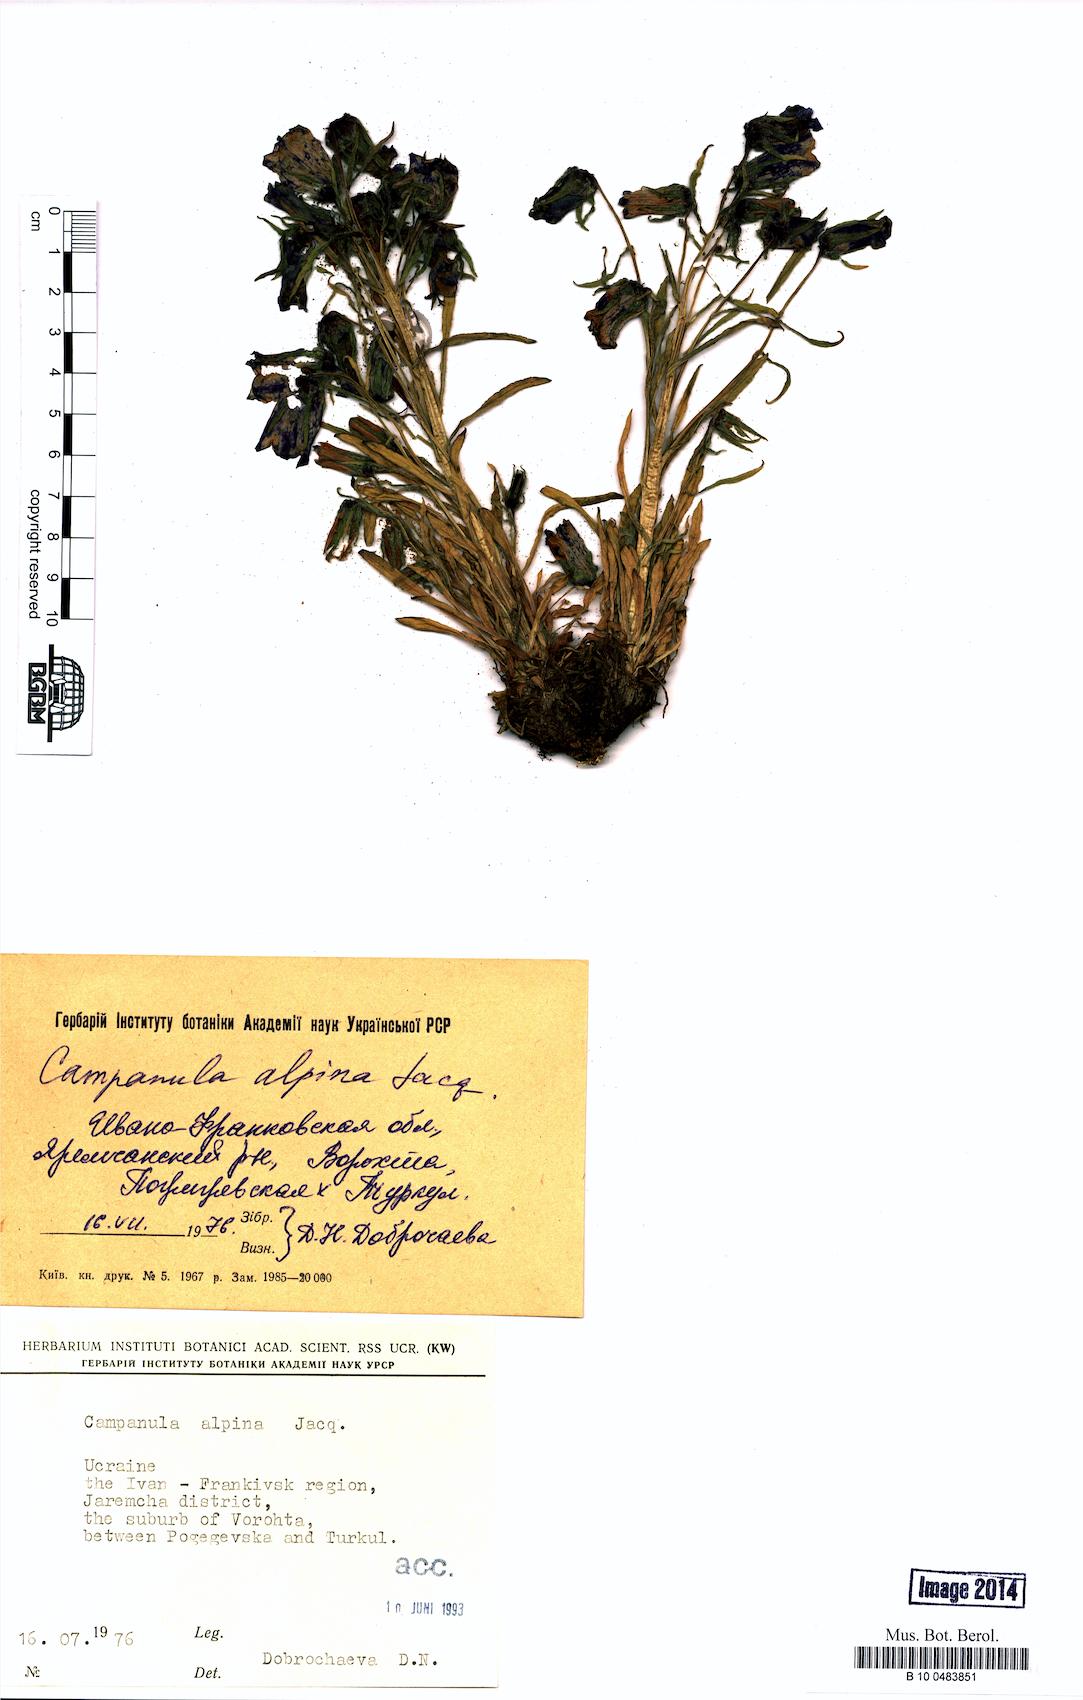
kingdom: Plantae
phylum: Tracheophyta
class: Magnoliopsida
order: Asterales
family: Campanulaceae
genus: Campanula
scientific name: Campanula alpina
